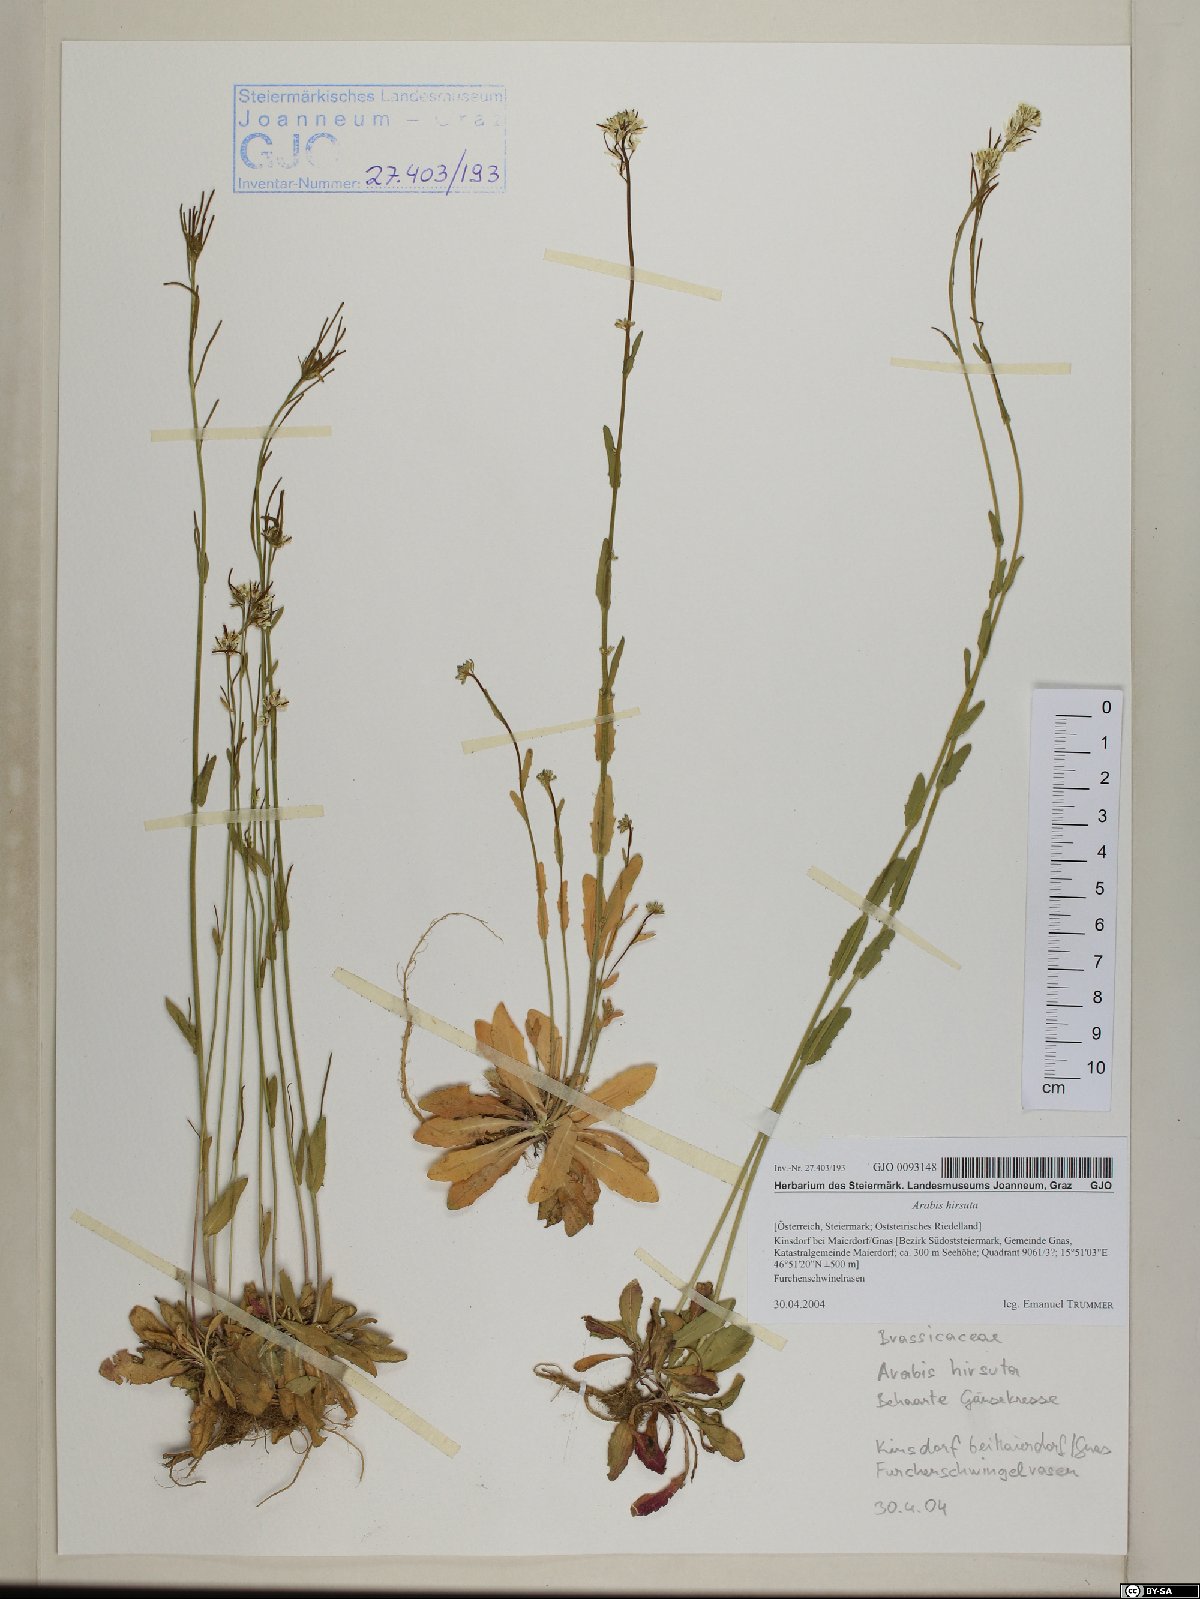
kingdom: Plantae
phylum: Tracheophyta
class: Magnoliopsida
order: Brassicales
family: Brassicaceae
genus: Arabis
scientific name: Arabis hirsuta
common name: Hairy rock-cress
